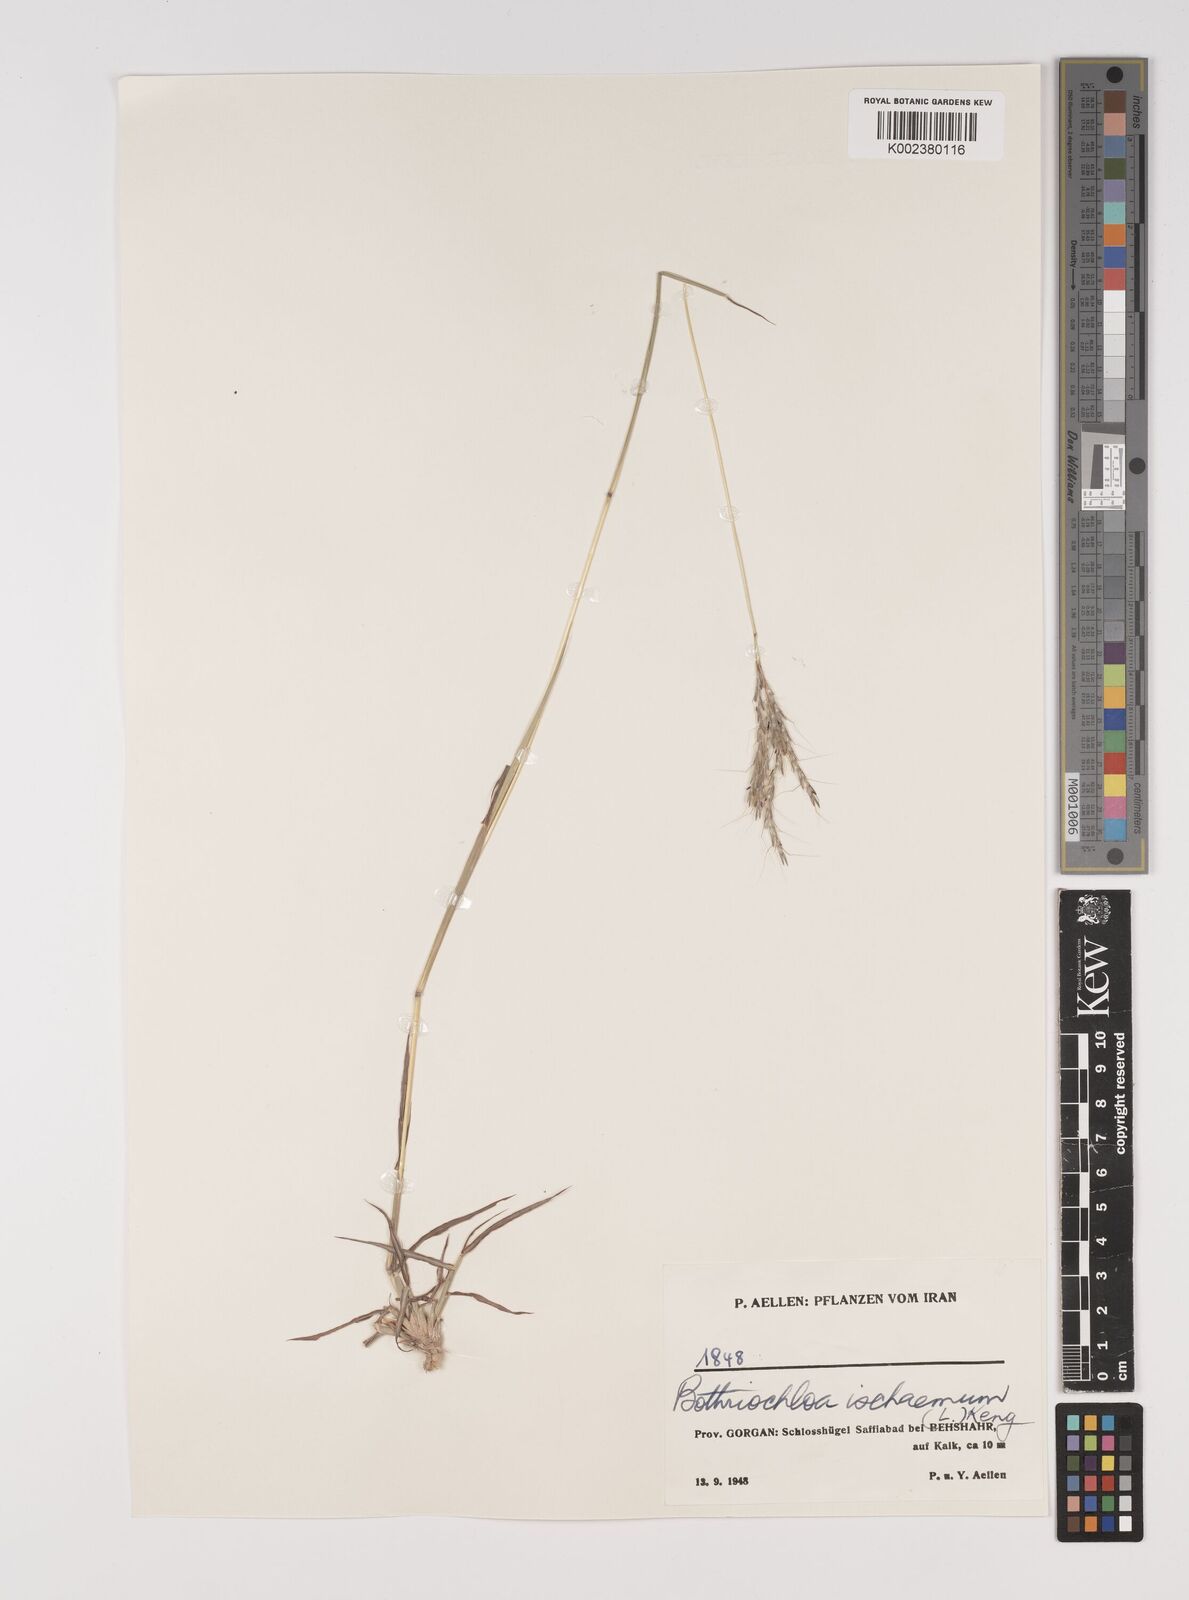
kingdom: Plantae
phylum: Tracheophyta
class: Liliopsida
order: Poales
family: Poaceae
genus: Bothriochloa
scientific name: Bothriochloa ischaemum
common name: Yellow bluestem
